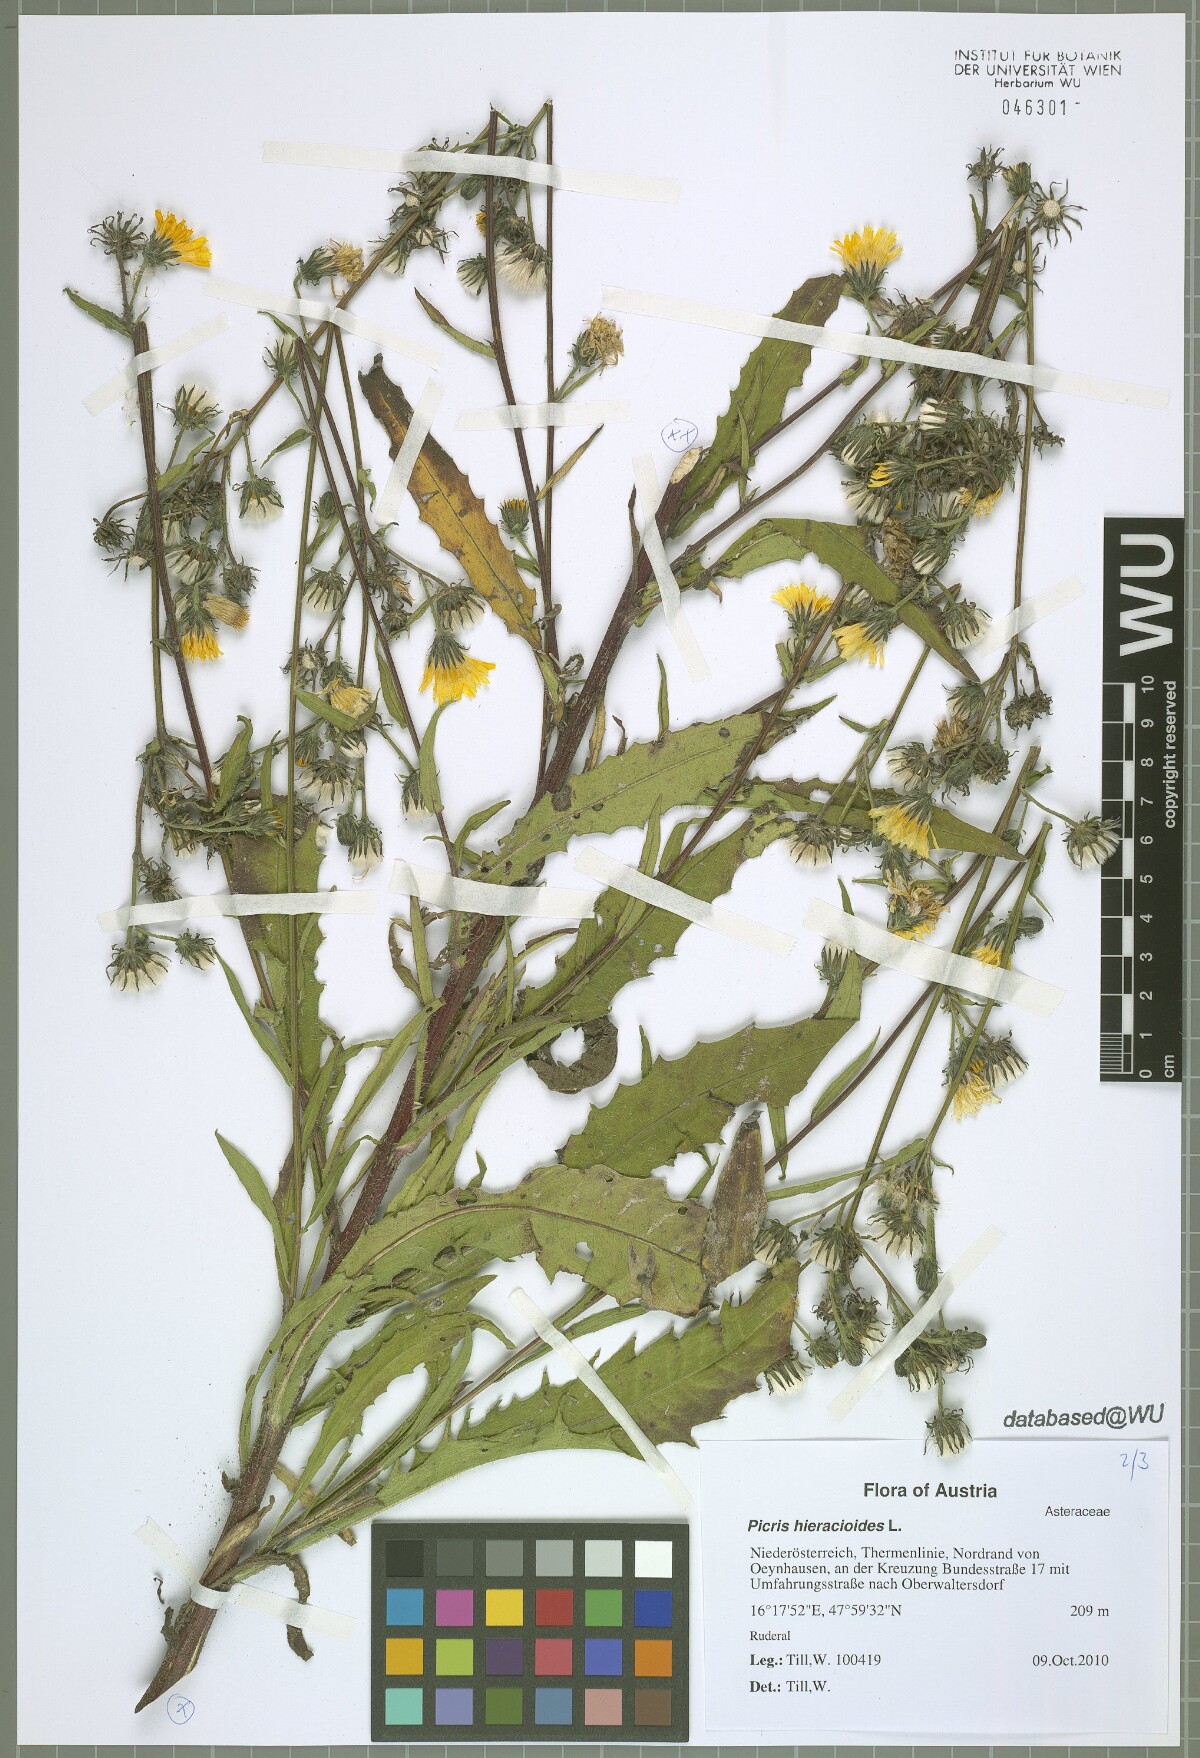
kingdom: Plantae
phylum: Tracheophyta
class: Magnoliopsida
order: Asterales
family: Asteraceae
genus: Picris
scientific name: Picris hieracioides
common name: Hawkweed oxtongue
